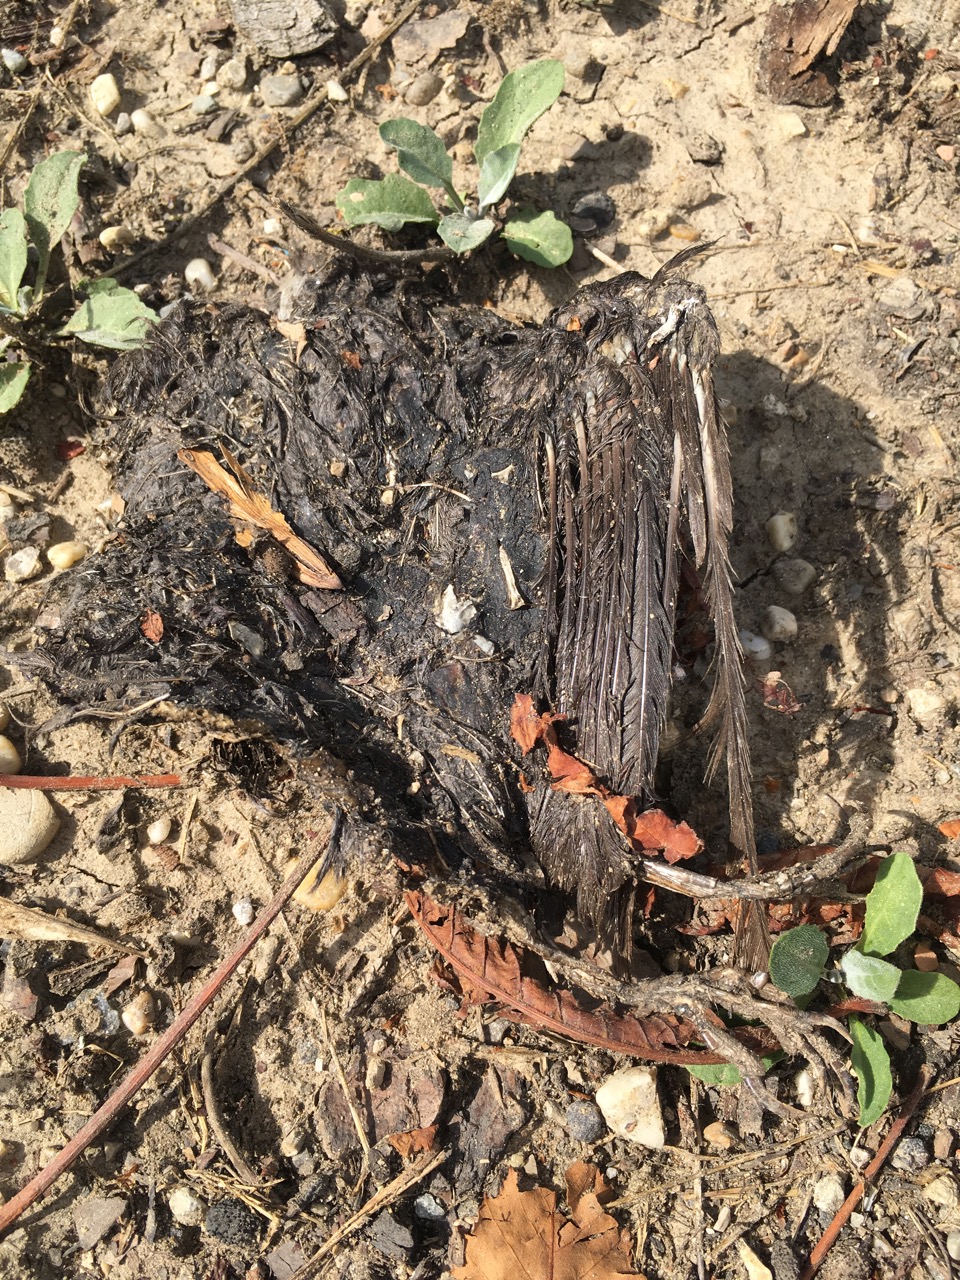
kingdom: Animalia
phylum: Chordata
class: Aves
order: Passeriformes
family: Turdidae
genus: Turdus
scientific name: Turdus merula
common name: Common blackbird
